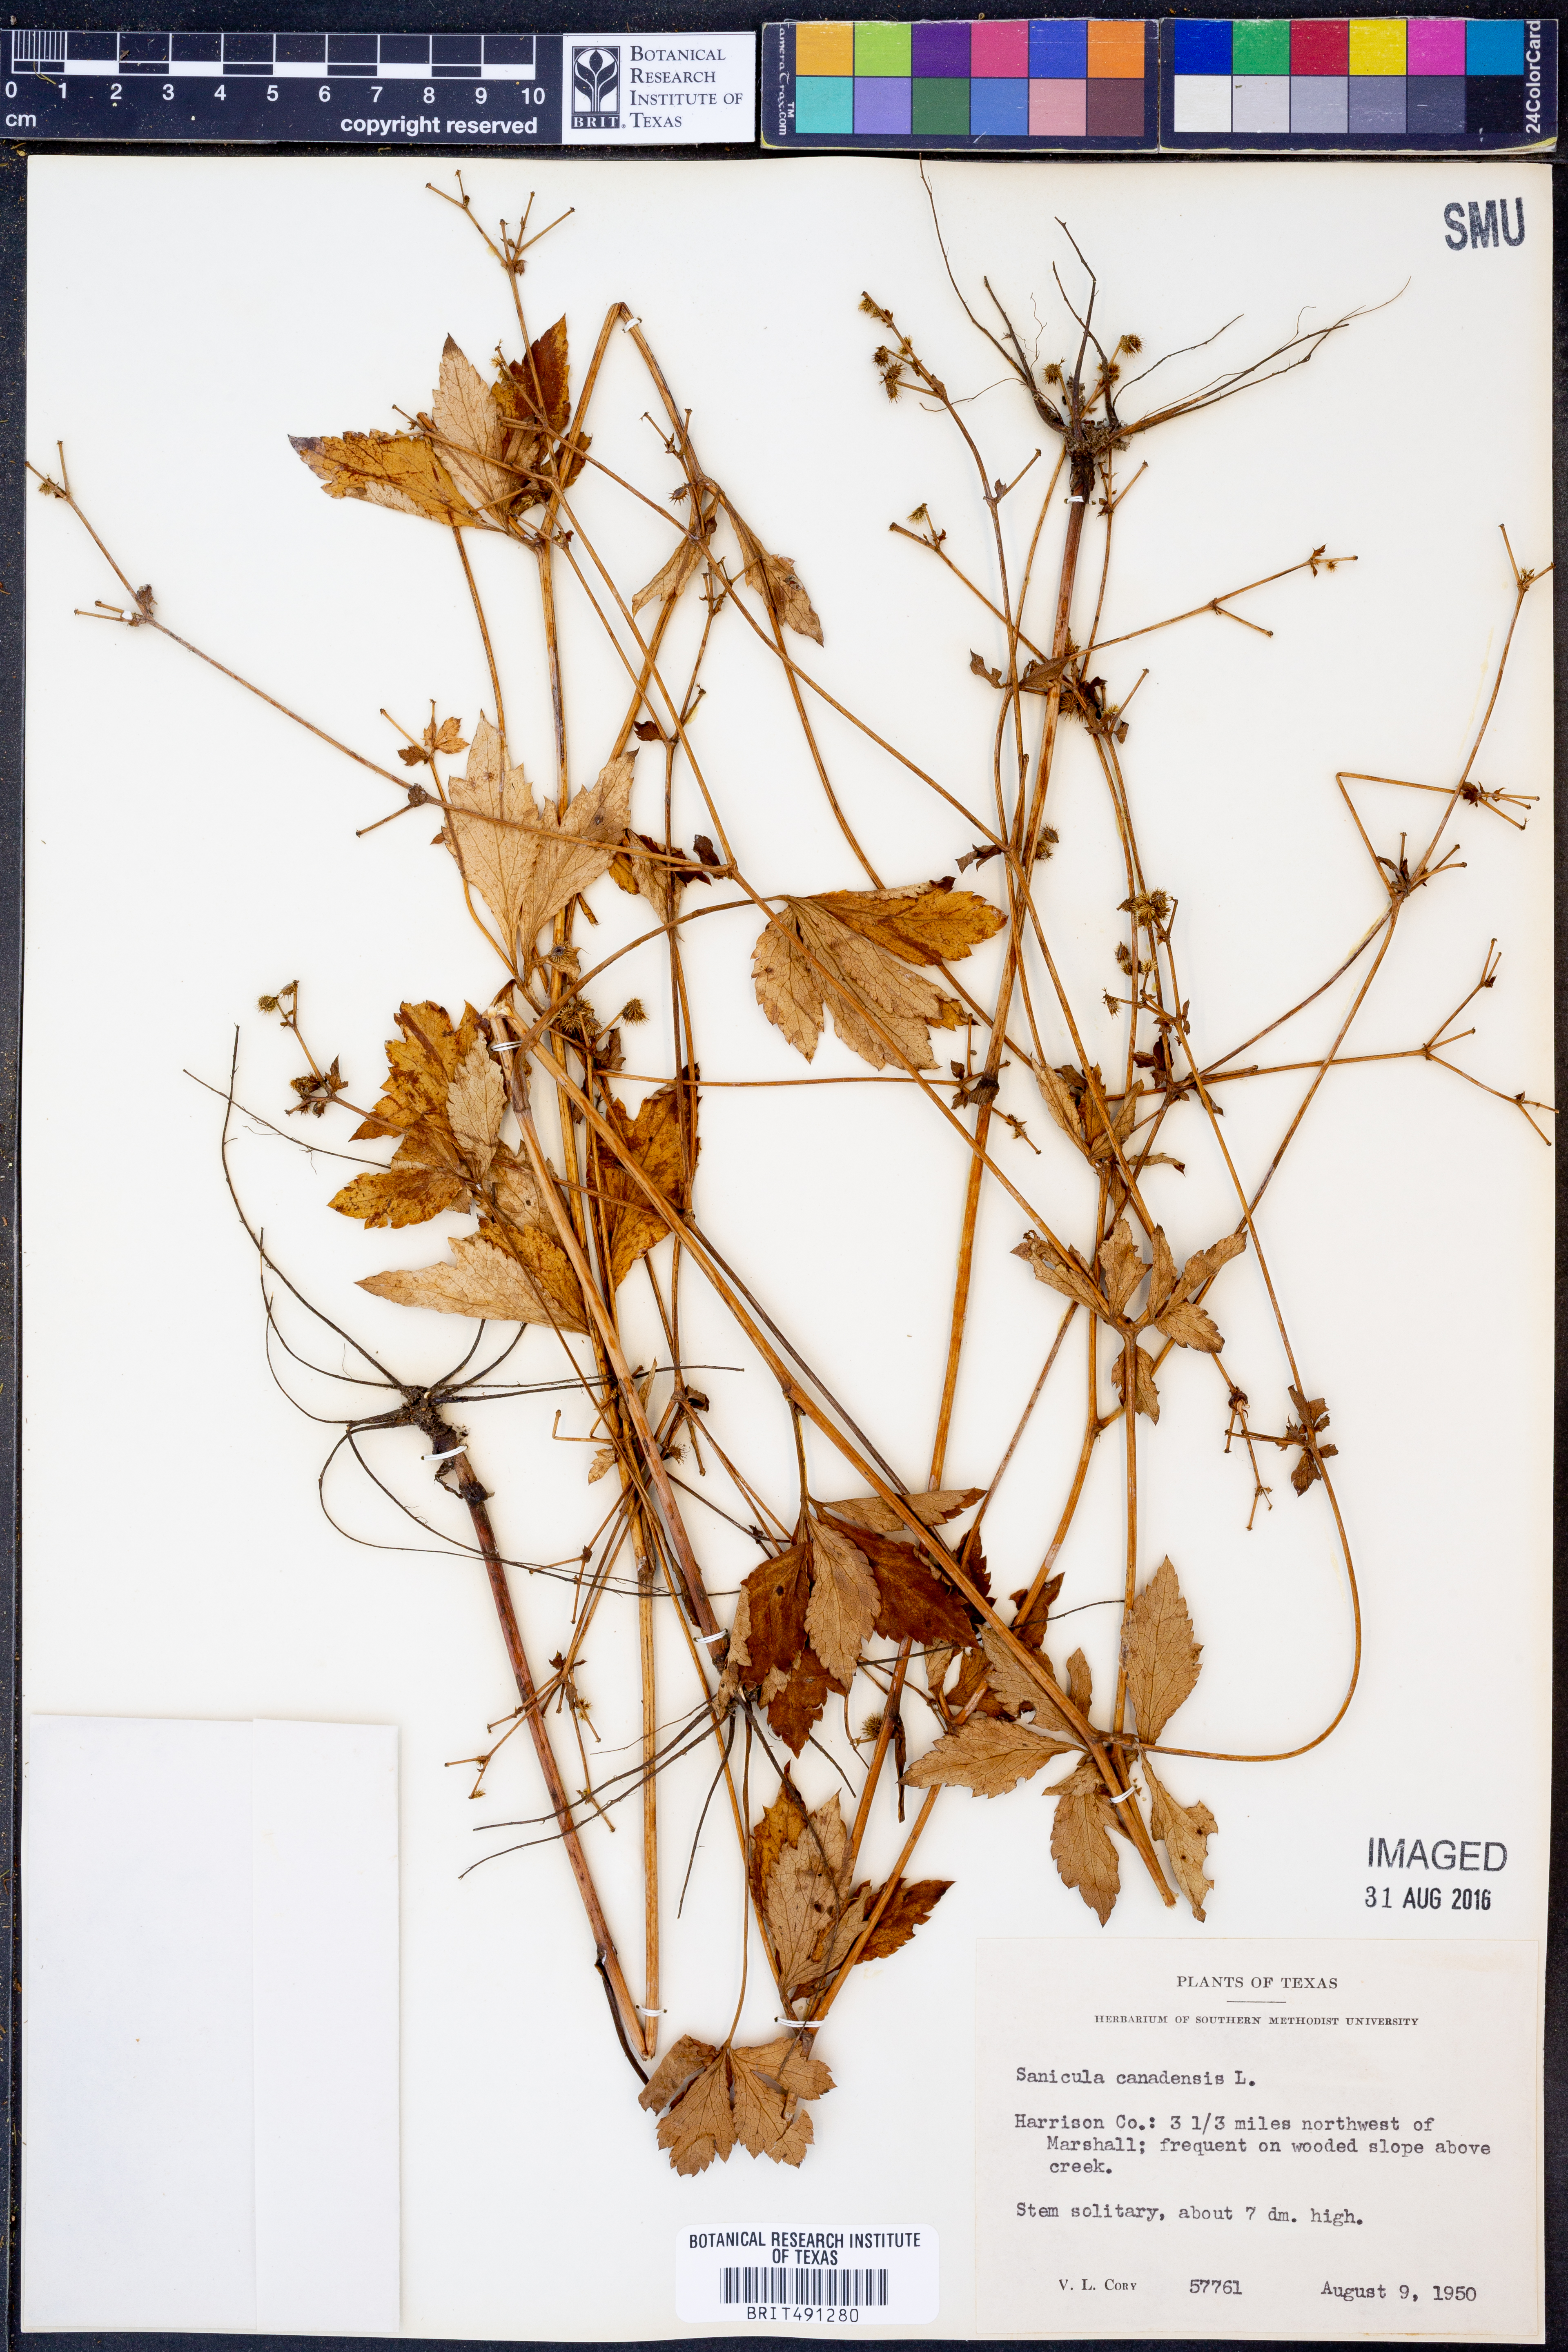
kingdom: Plantae
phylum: Tracheophyta
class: Magnoliopsida
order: Apiales
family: Apiaceae
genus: Sanicula
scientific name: Sanicula canadensis
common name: Canada sanicle
